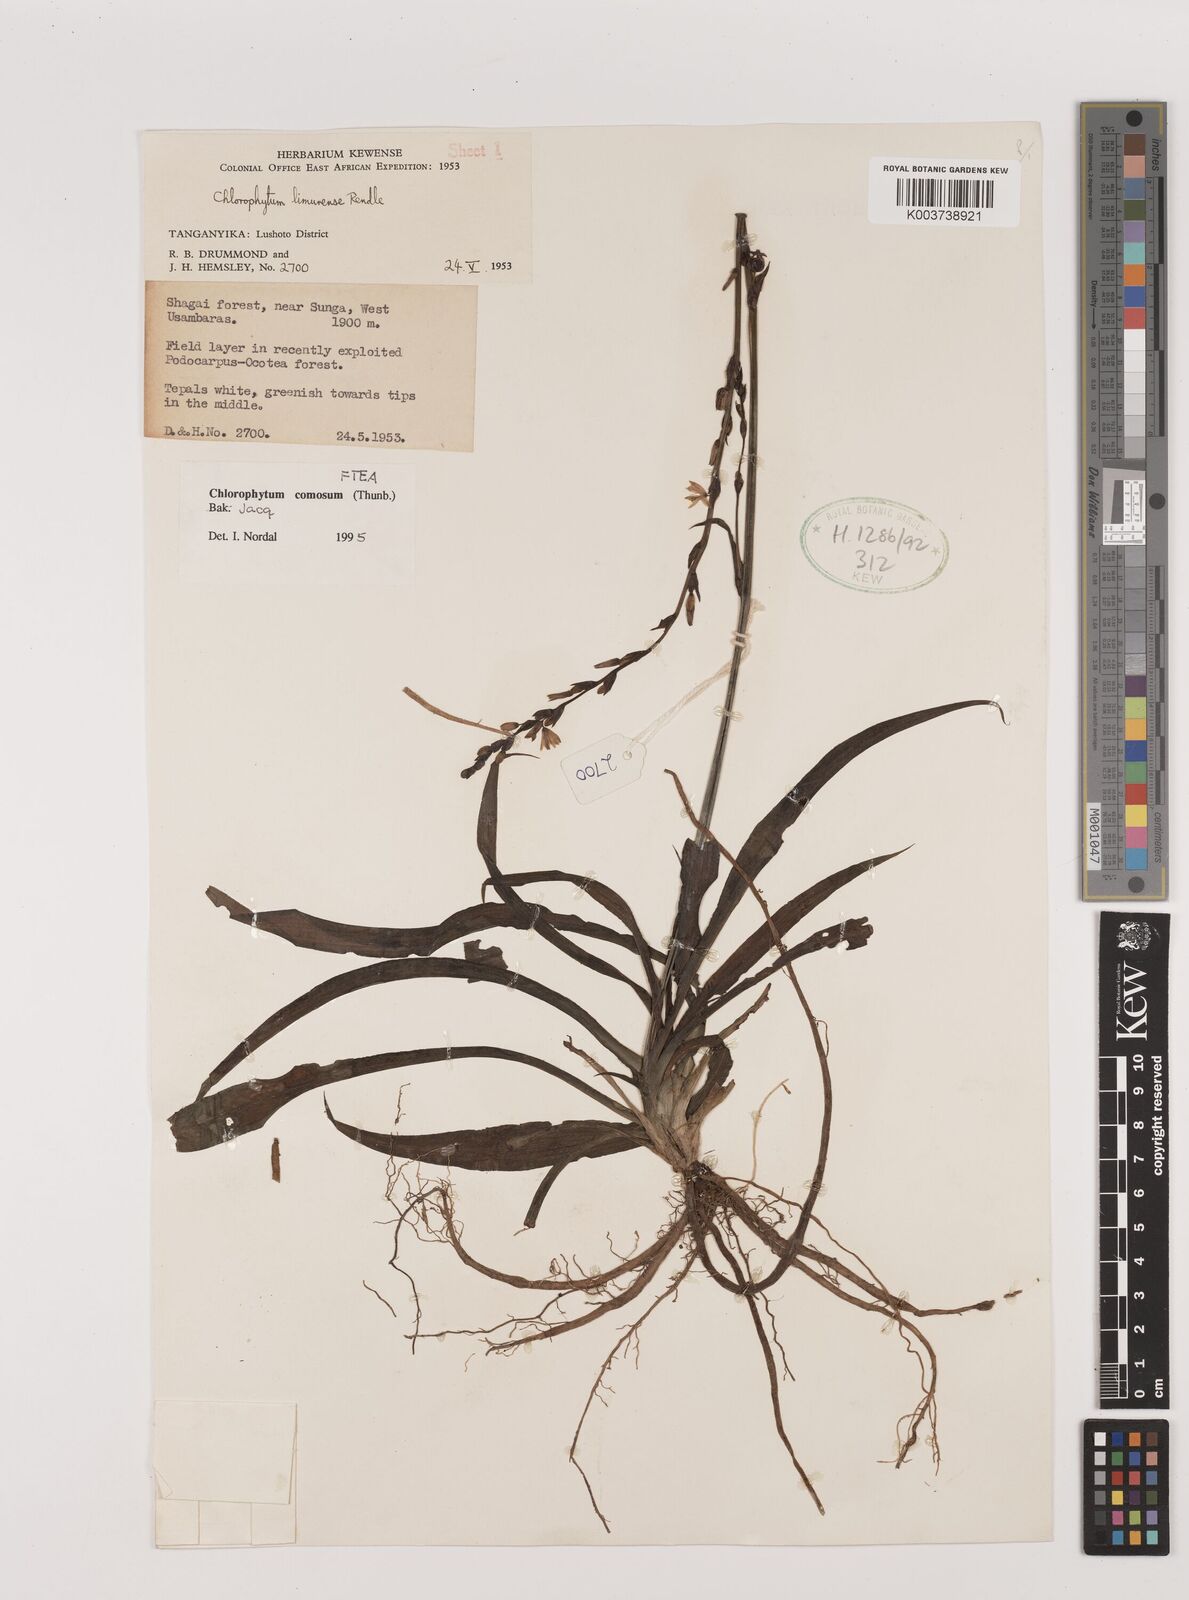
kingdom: Plantae
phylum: Tracheophyta
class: Liliopsida
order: Asparagales
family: Asparagaceae
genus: Chlorophytum
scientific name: Chlorophytum comosum
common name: Spider plant
